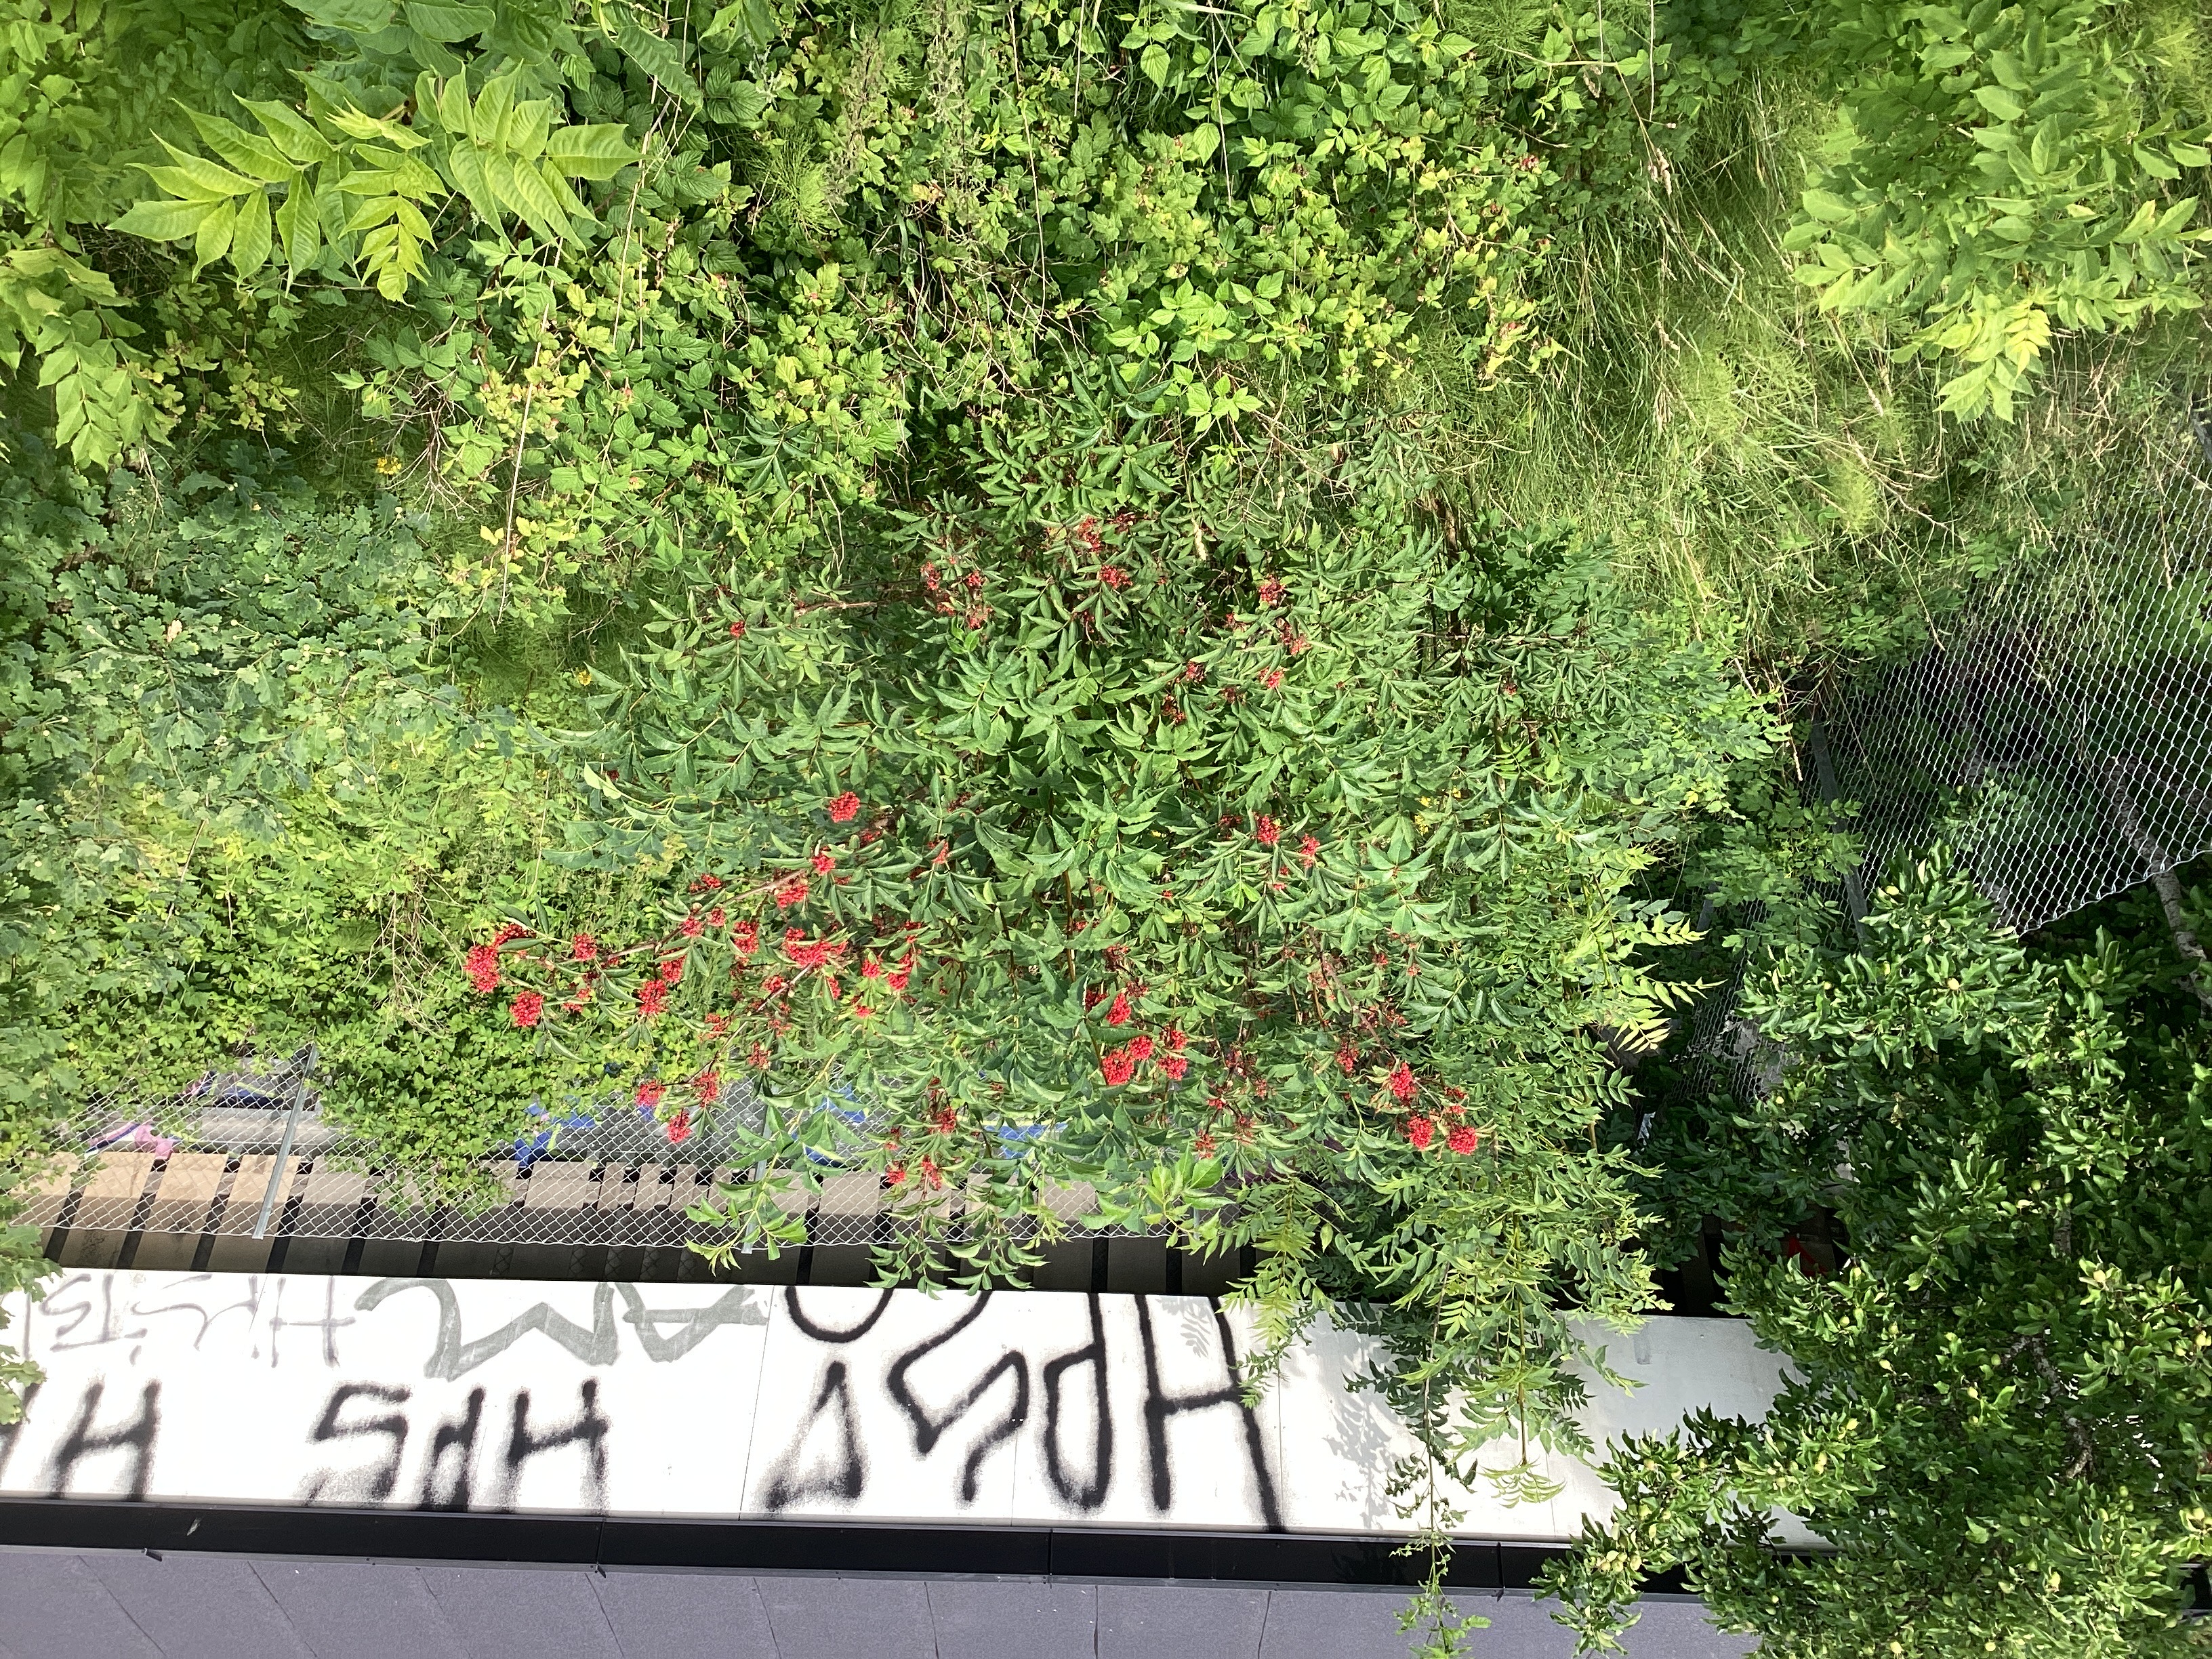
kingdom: Plantae
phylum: Tracheophyta
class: Magnoliopsida
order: Dipsacales
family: Viburnaceae
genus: Sambucus
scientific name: Sambucus racemosa
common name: rødhyll
